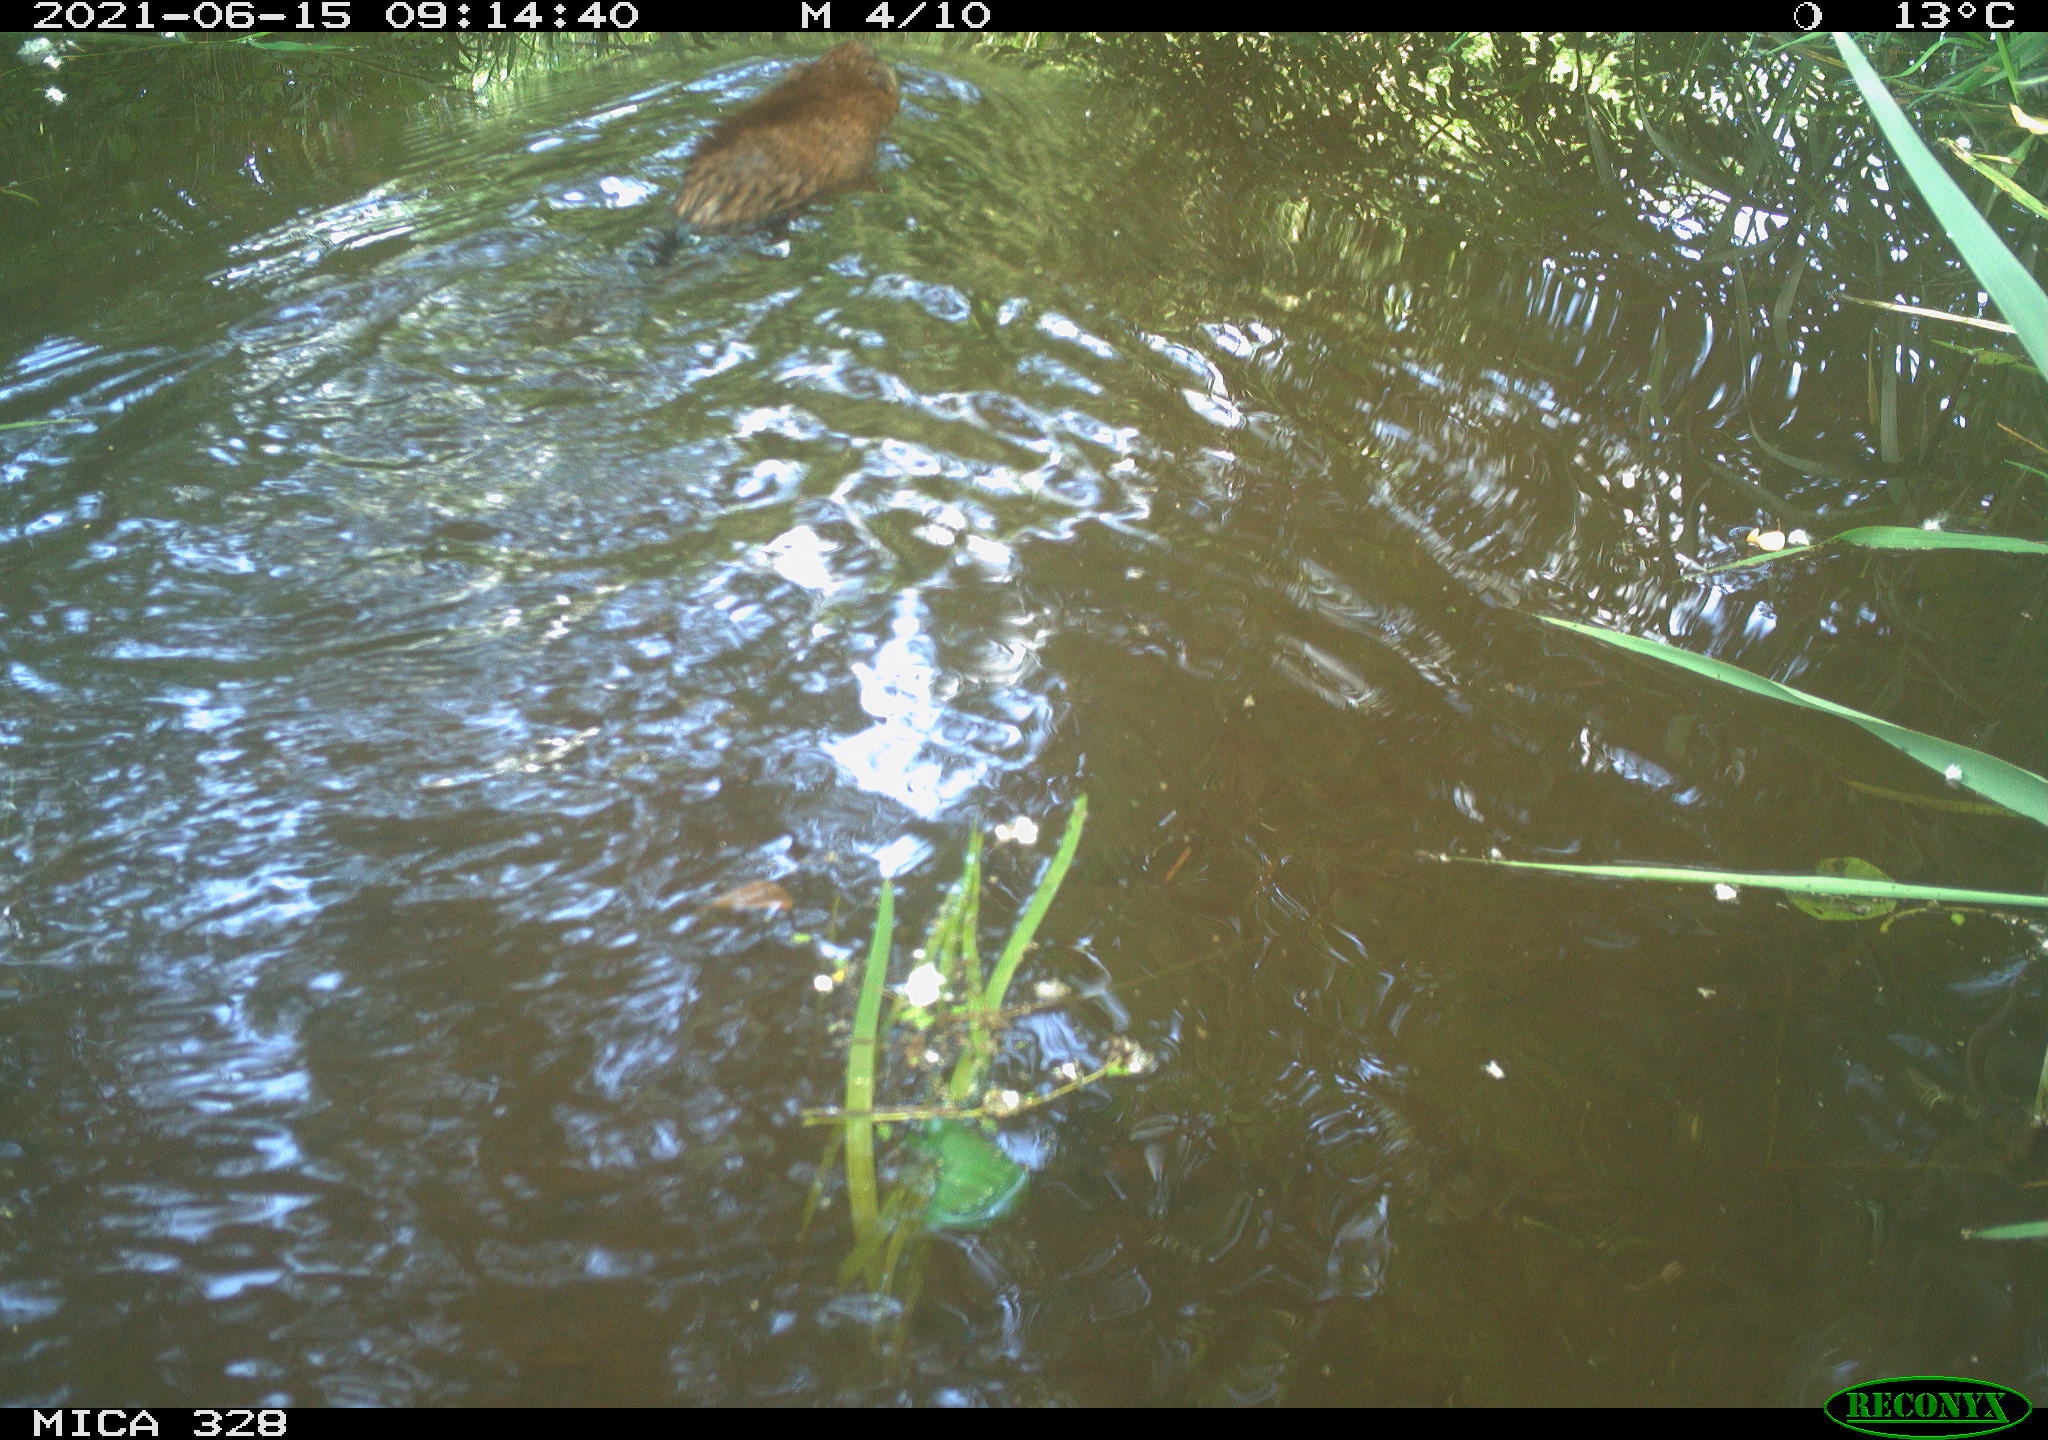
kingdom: Animalia
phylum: Chordata
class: Mammalia
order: Rodentia
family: Cricetidae
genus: Ondatra
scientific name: Ondatra zibethicus
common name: Muskrat
